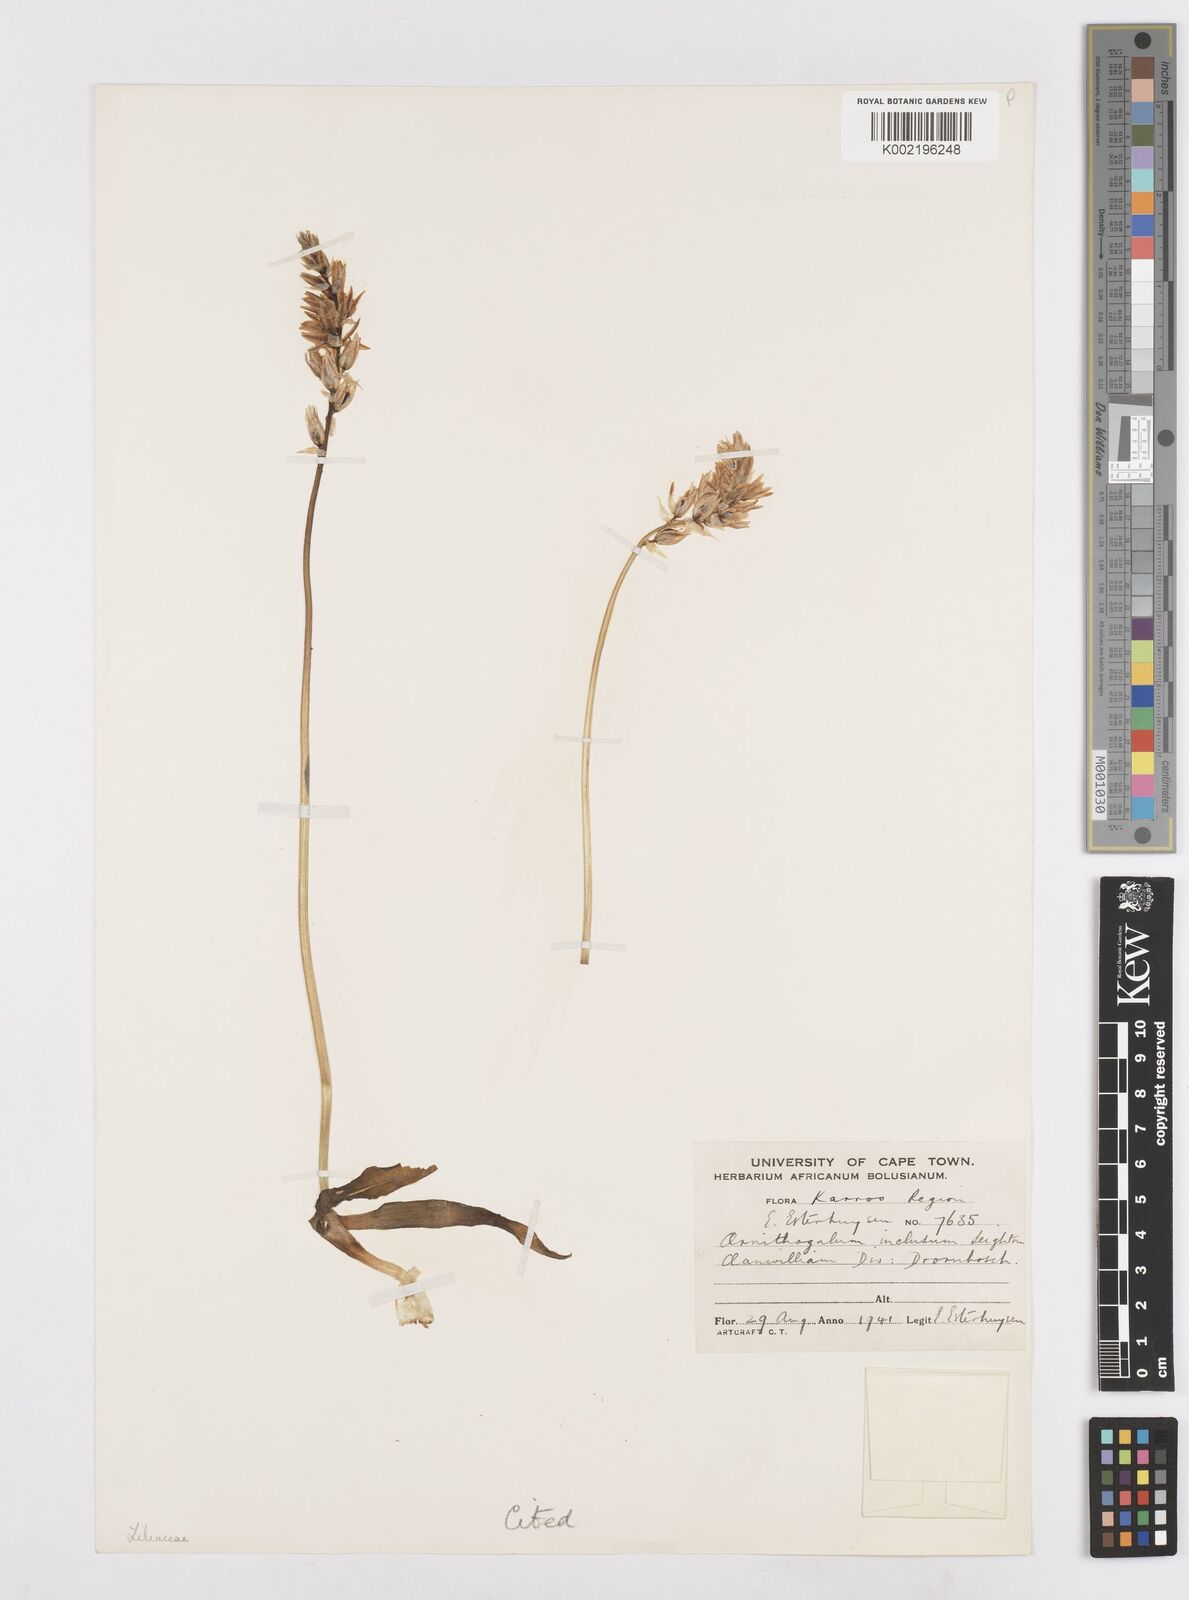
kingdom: Plantae
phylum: Tracheophyta
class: Liliopsida
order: Asparagales
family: Asparagaceae
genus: Ornithogalum
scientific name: Ornithogalum inclusum
